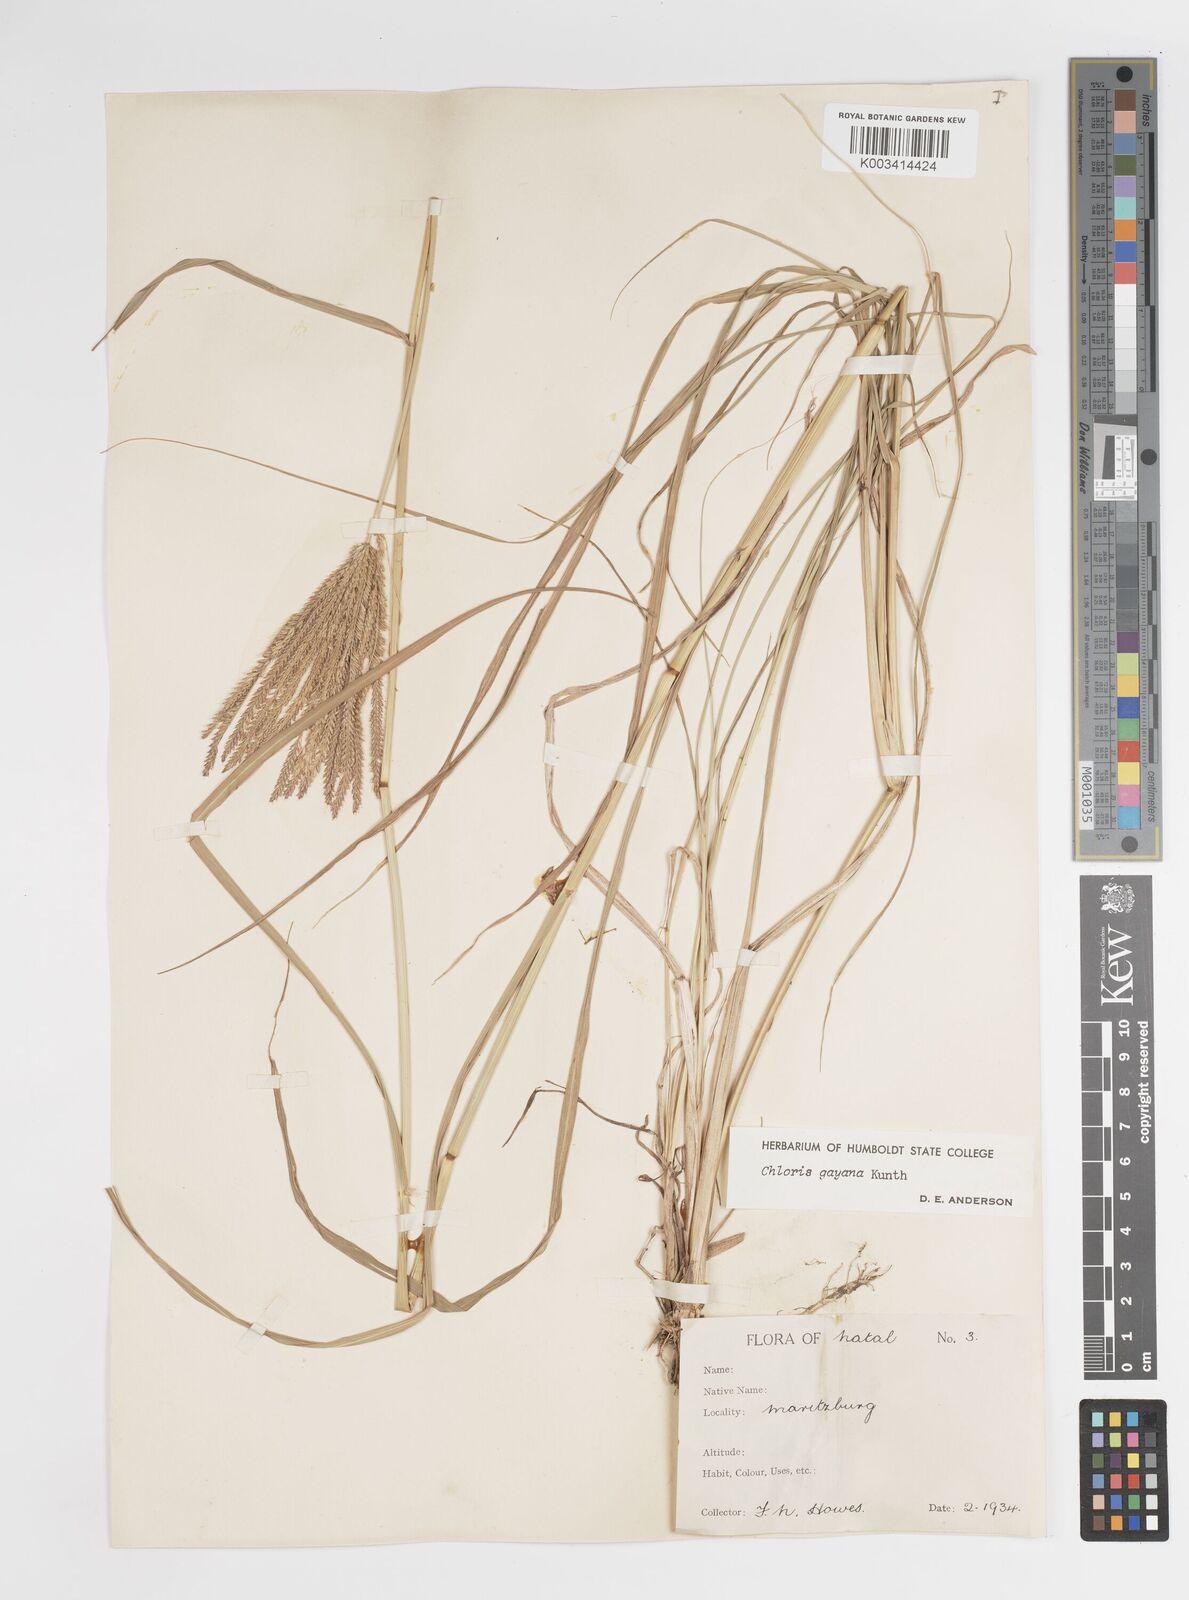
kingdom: Plantae
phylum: Tracheophyta
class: Liliopsida
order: Poales
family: Poaceae
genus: Chloris
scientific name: Chloris gayana
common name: Rhodes grass
